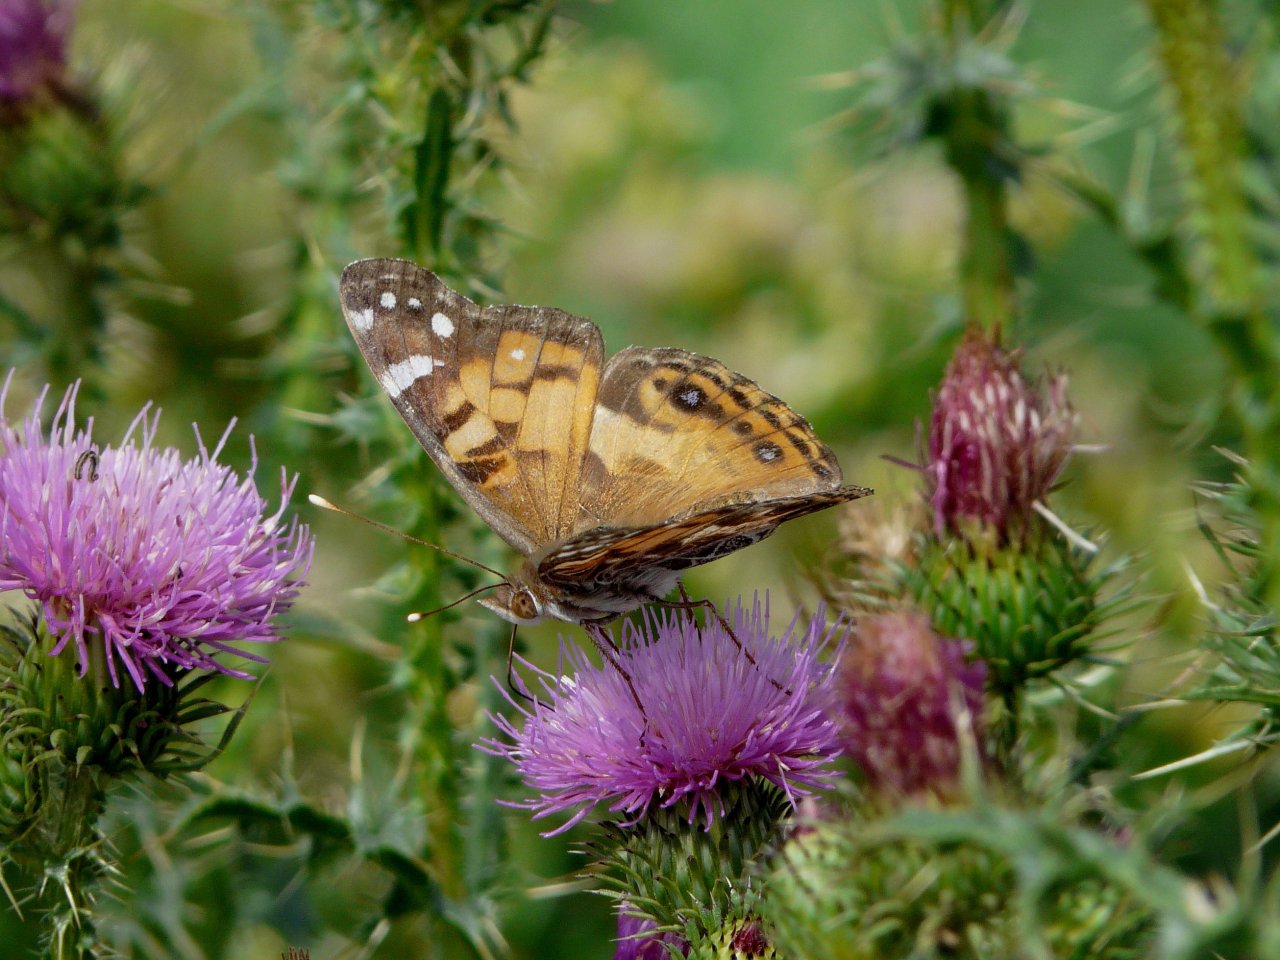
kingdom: Animalia
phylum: Arthropoda
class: Insecta
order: Lepidoptera
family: Nymphalidae
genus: Vanessa
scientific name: Vanessa virginiensis
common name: American Lady
